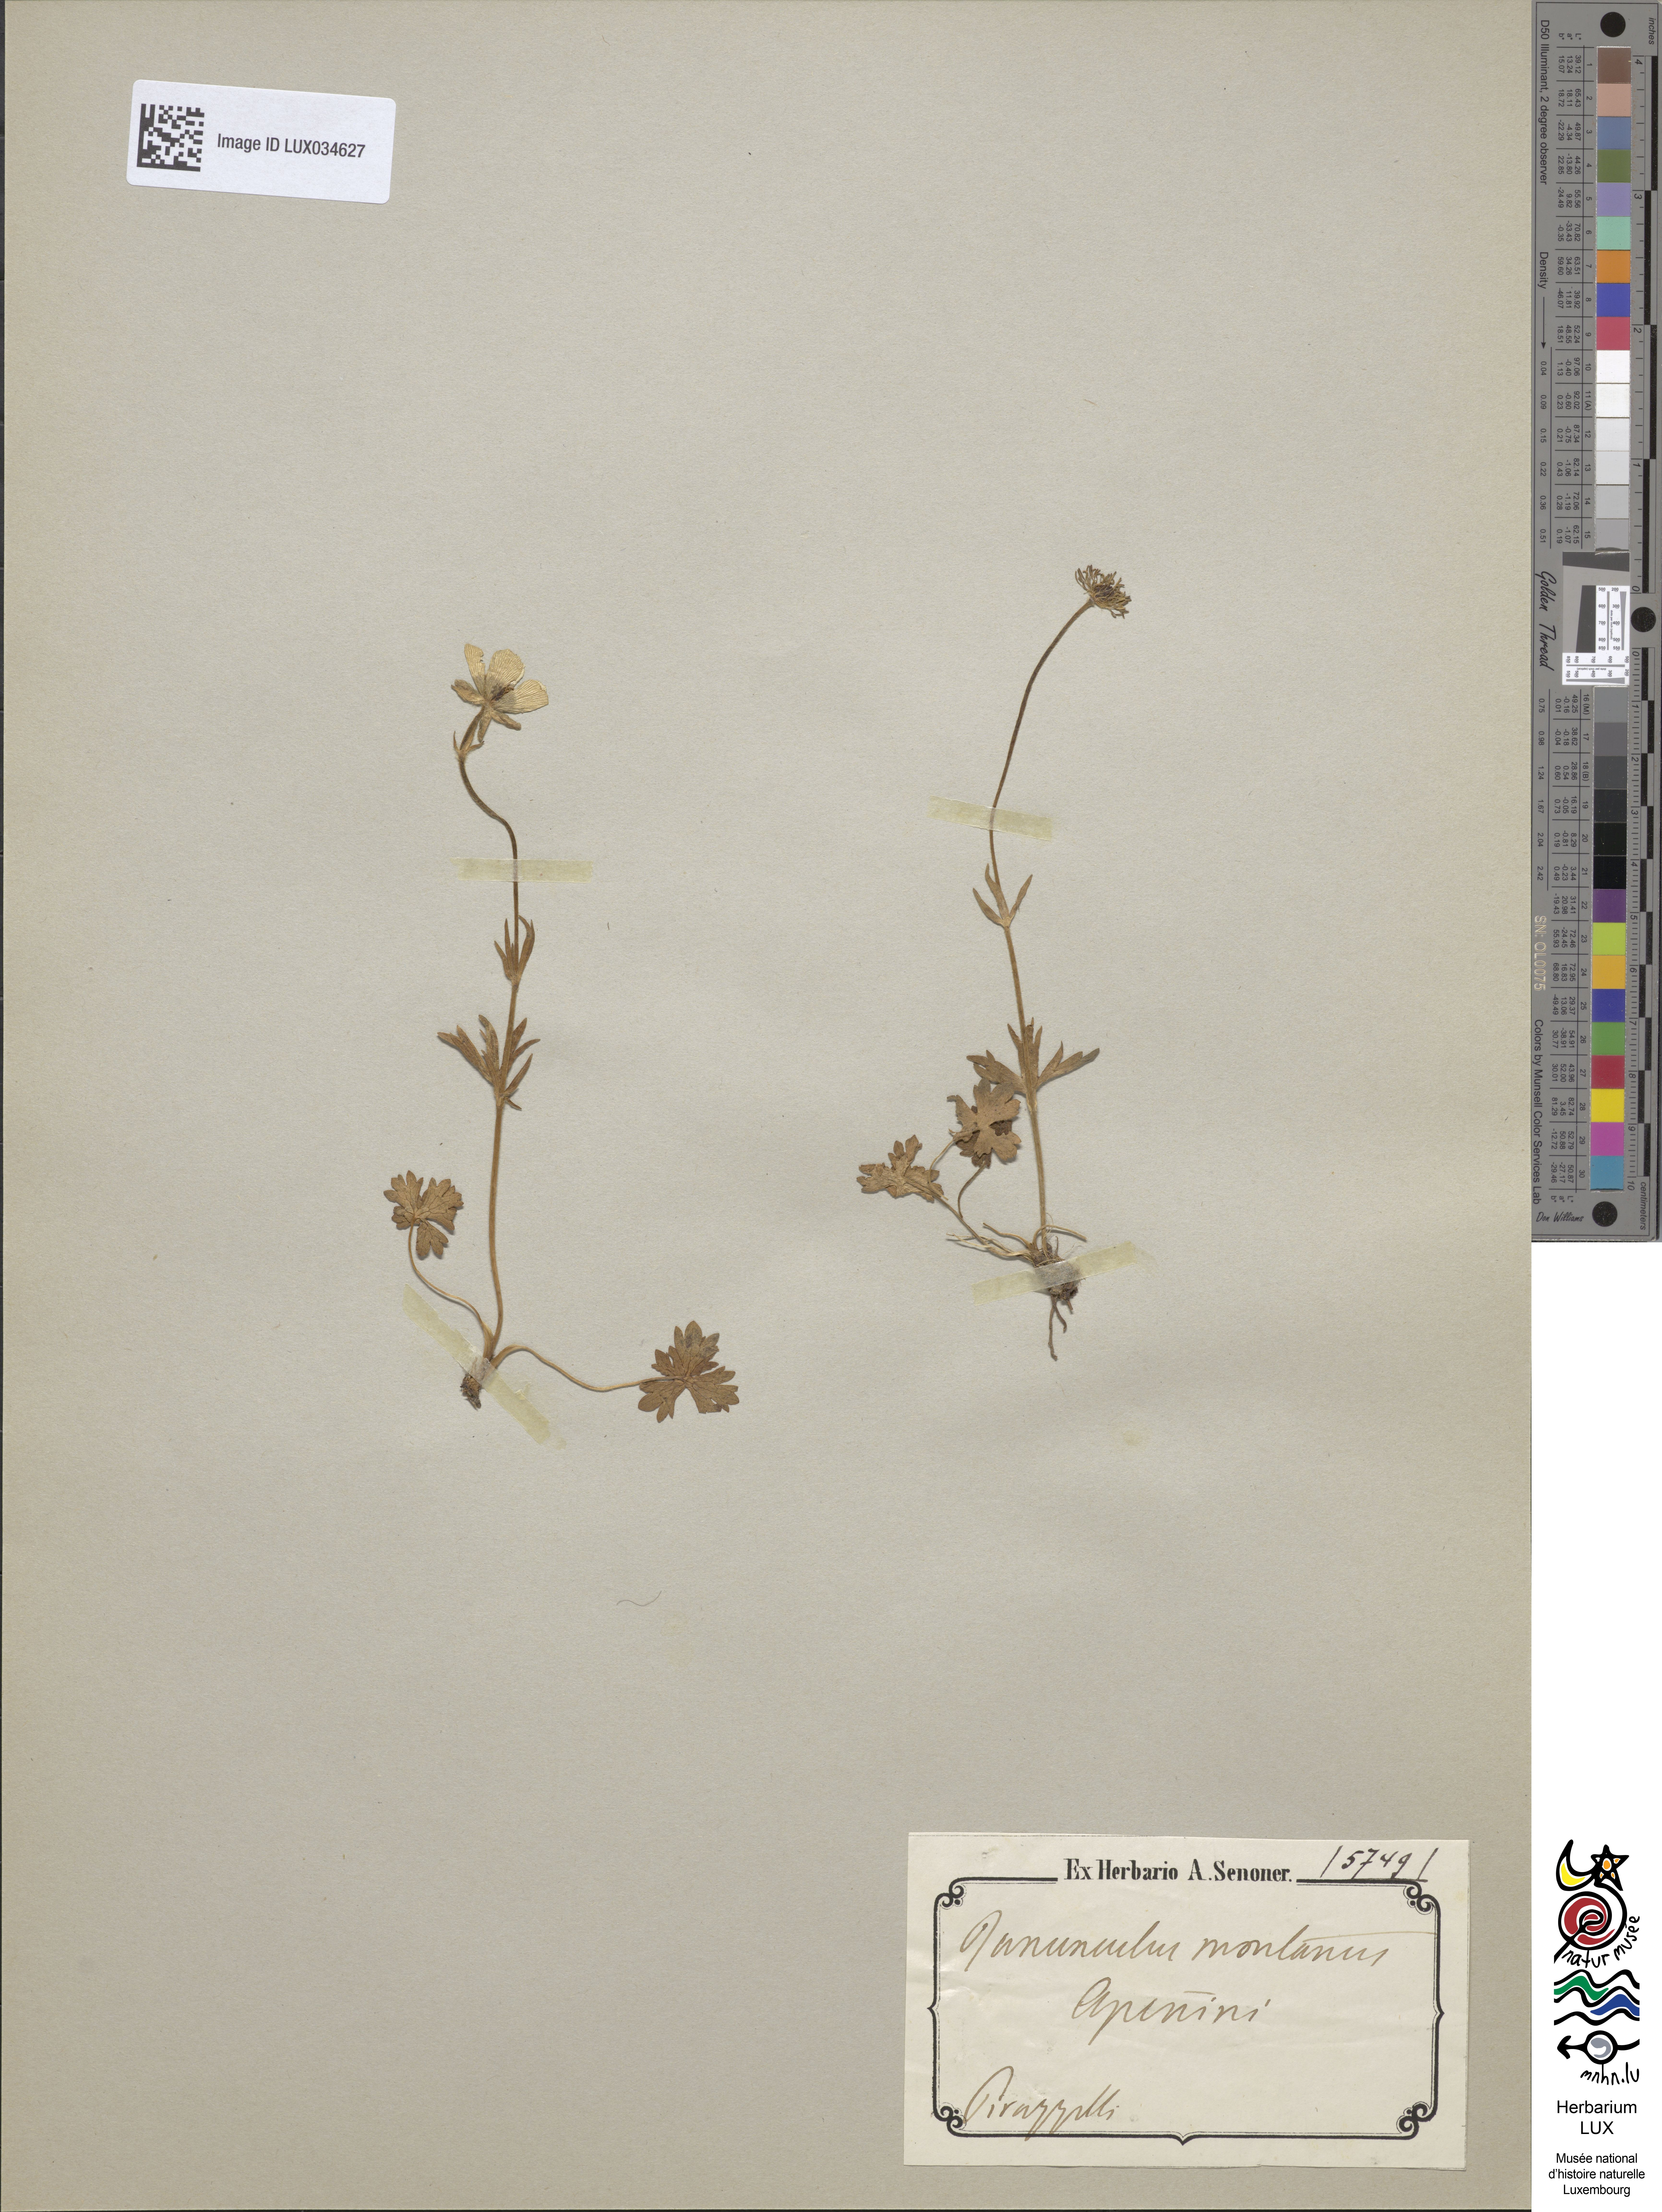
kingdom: Plantae
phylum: Tracheophyta
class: Magnoliopsida
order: Ranunculales
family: Ranunculaceae
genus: Ranunculus
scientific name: Ranunculus montanus
